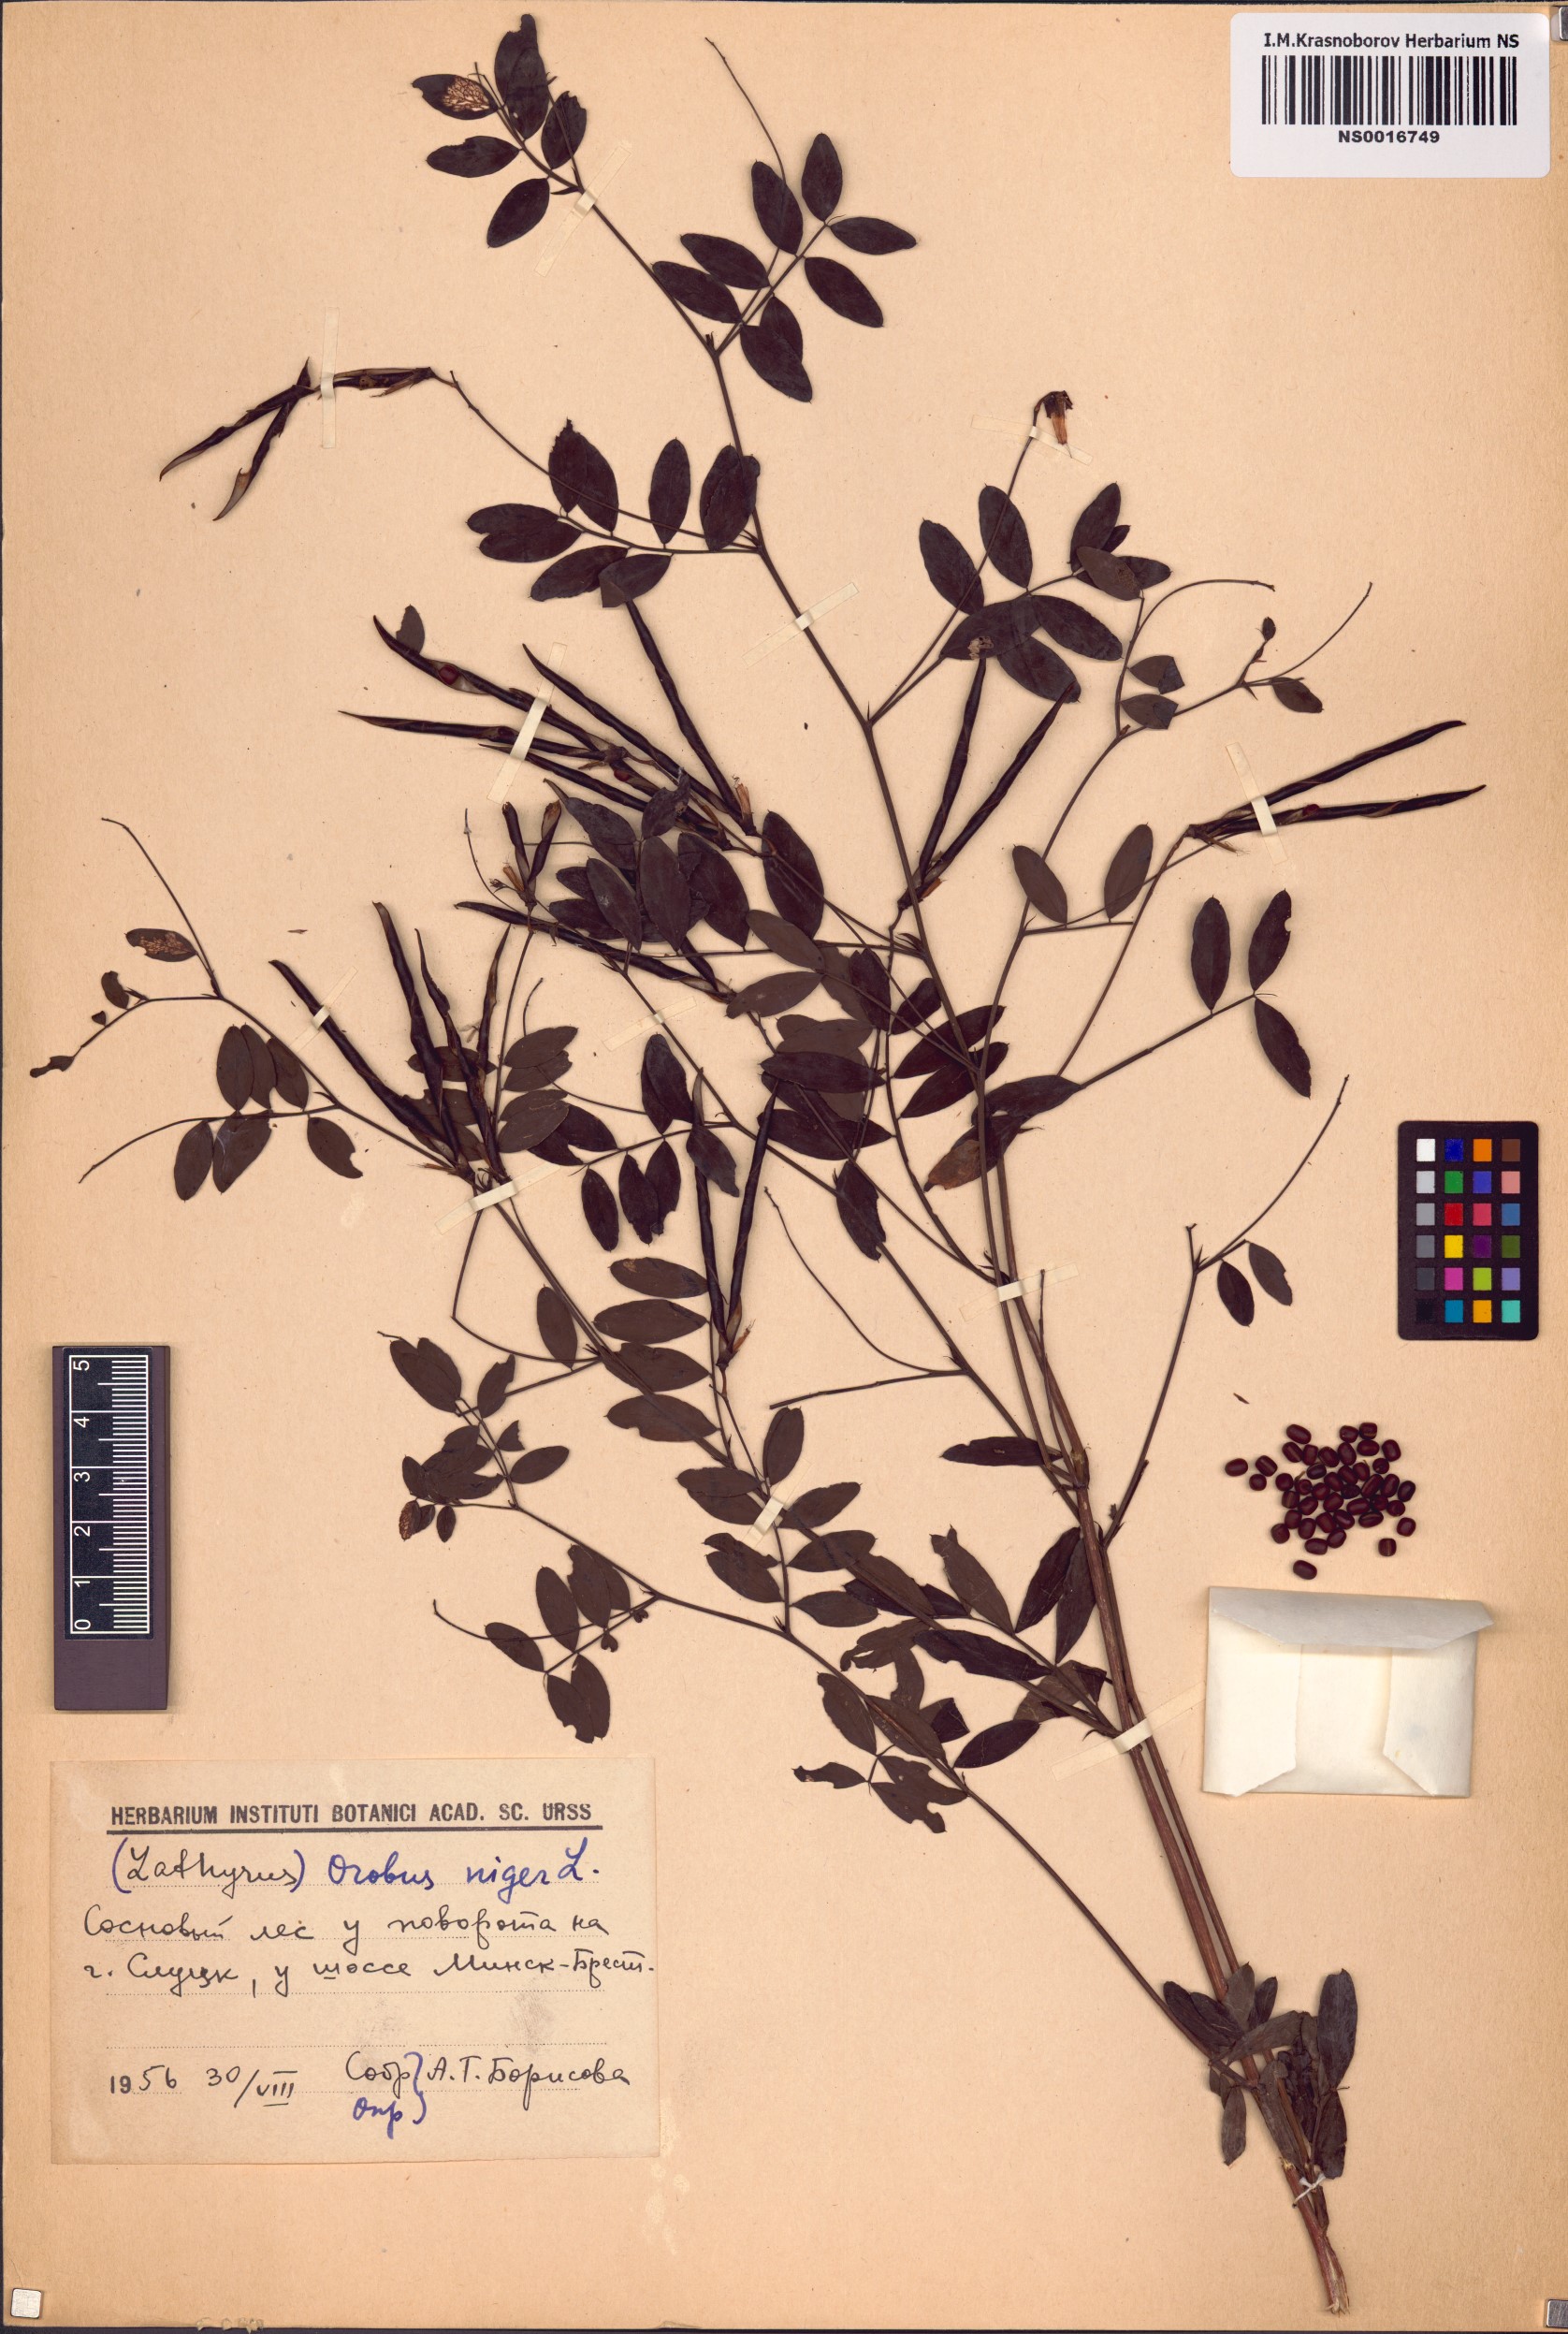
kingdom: Plantae
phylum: Tracheophyta
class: Magnoliopsida
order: Fabales
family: Fabaceae
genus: Lathyrus
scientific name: Lathyrus niger
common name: Black pea
